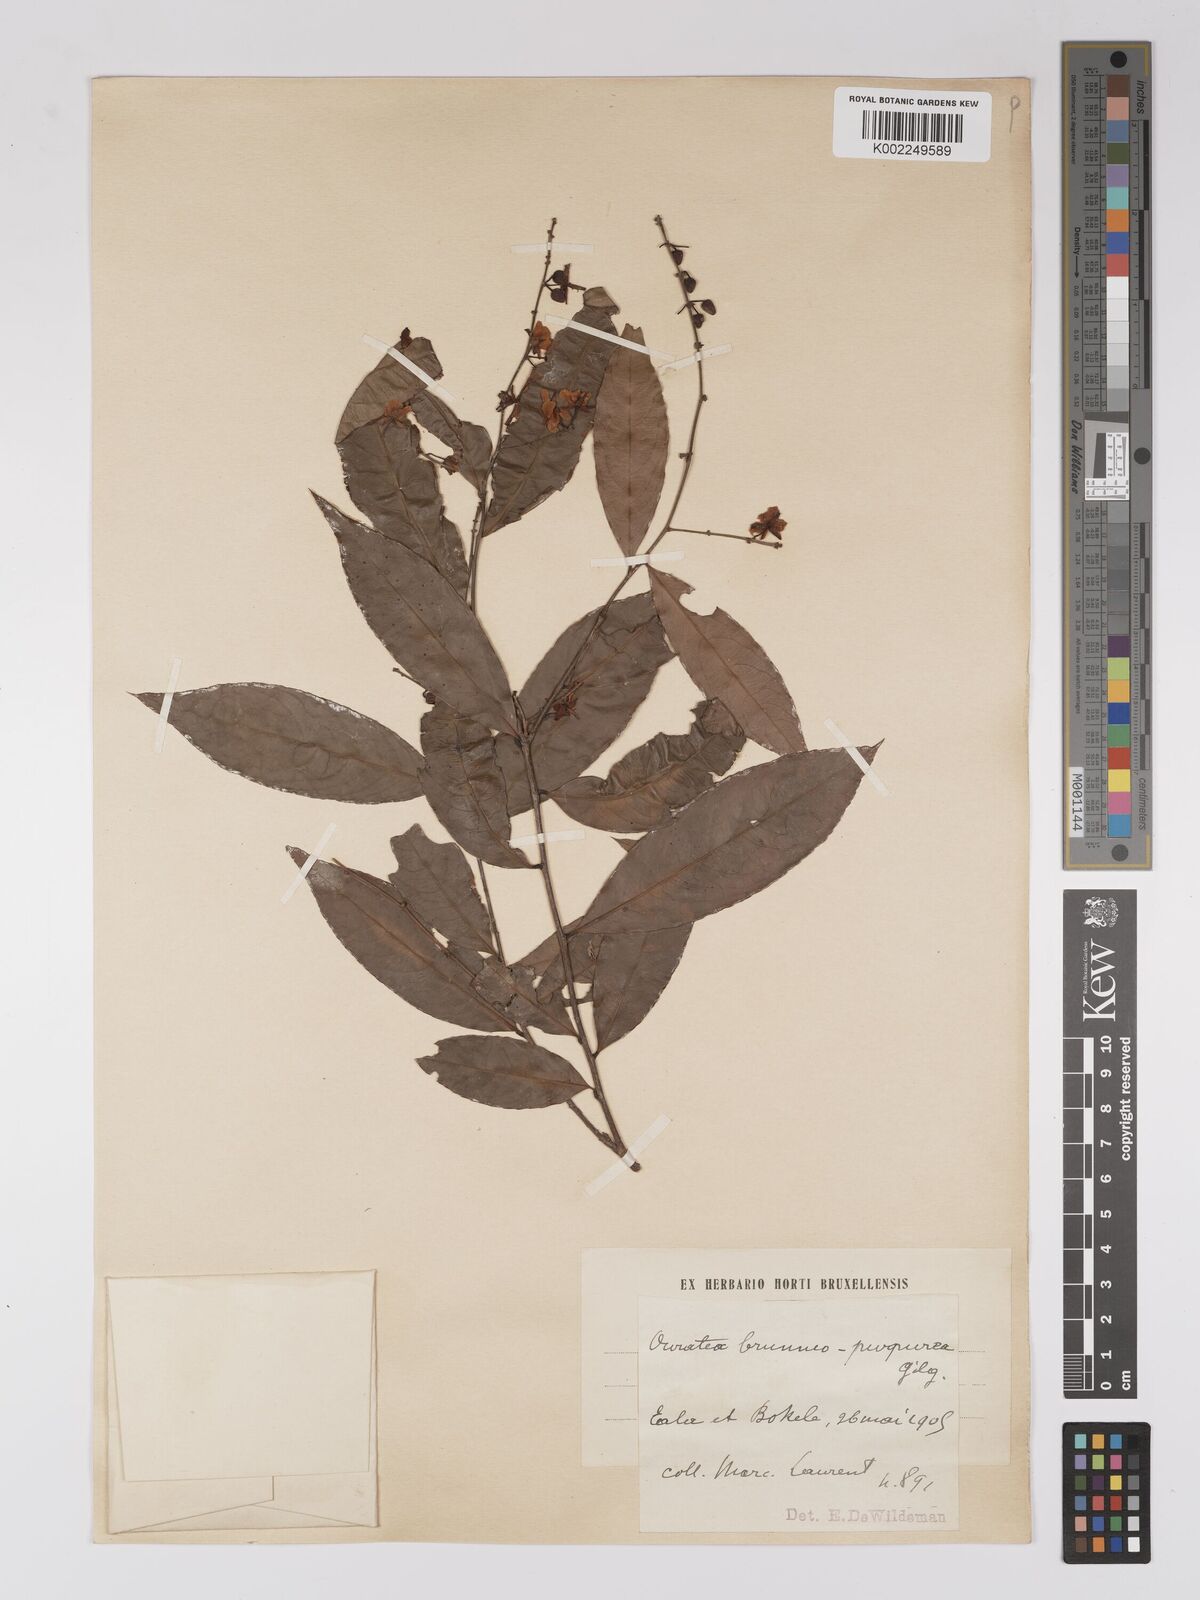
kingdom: Plantae
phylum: Tracheophyta
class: Magnoliopsida
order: Malpighiales
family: Ochnaceae
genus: Campylospermum
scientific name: Campylospermum reticulatum
